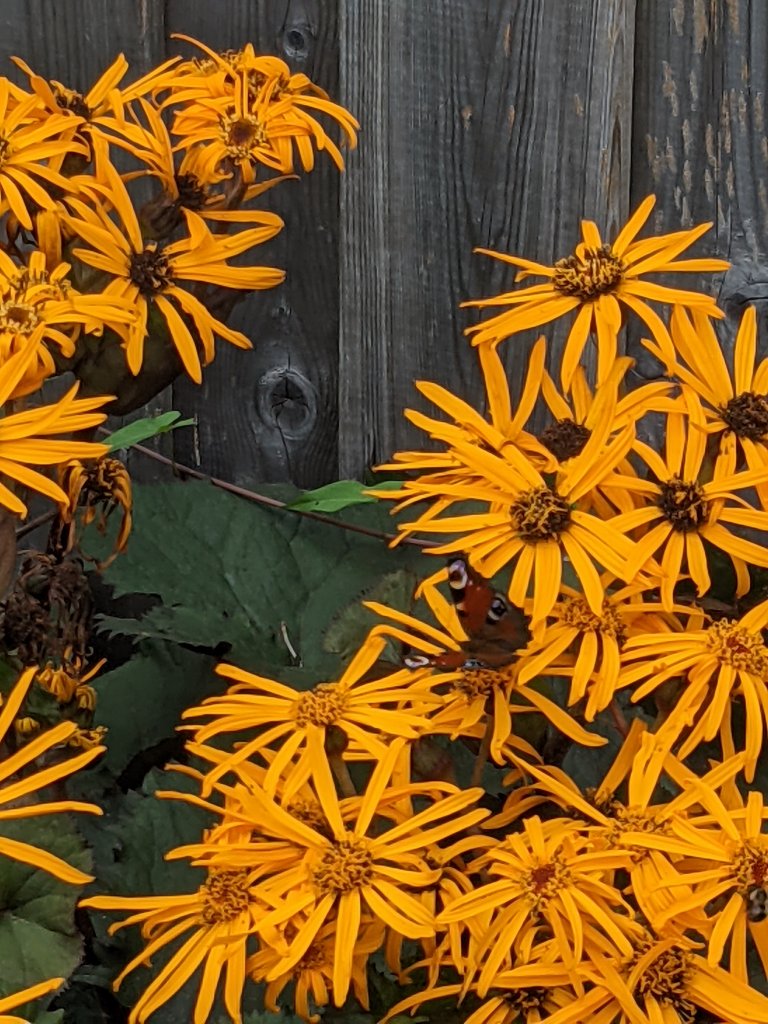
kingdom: Animalia
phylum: Arthropoda
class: Insecta
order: Lepidoptera
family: Nymphalidae
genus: Aglais
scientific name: Aglais io
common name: European Peacock
